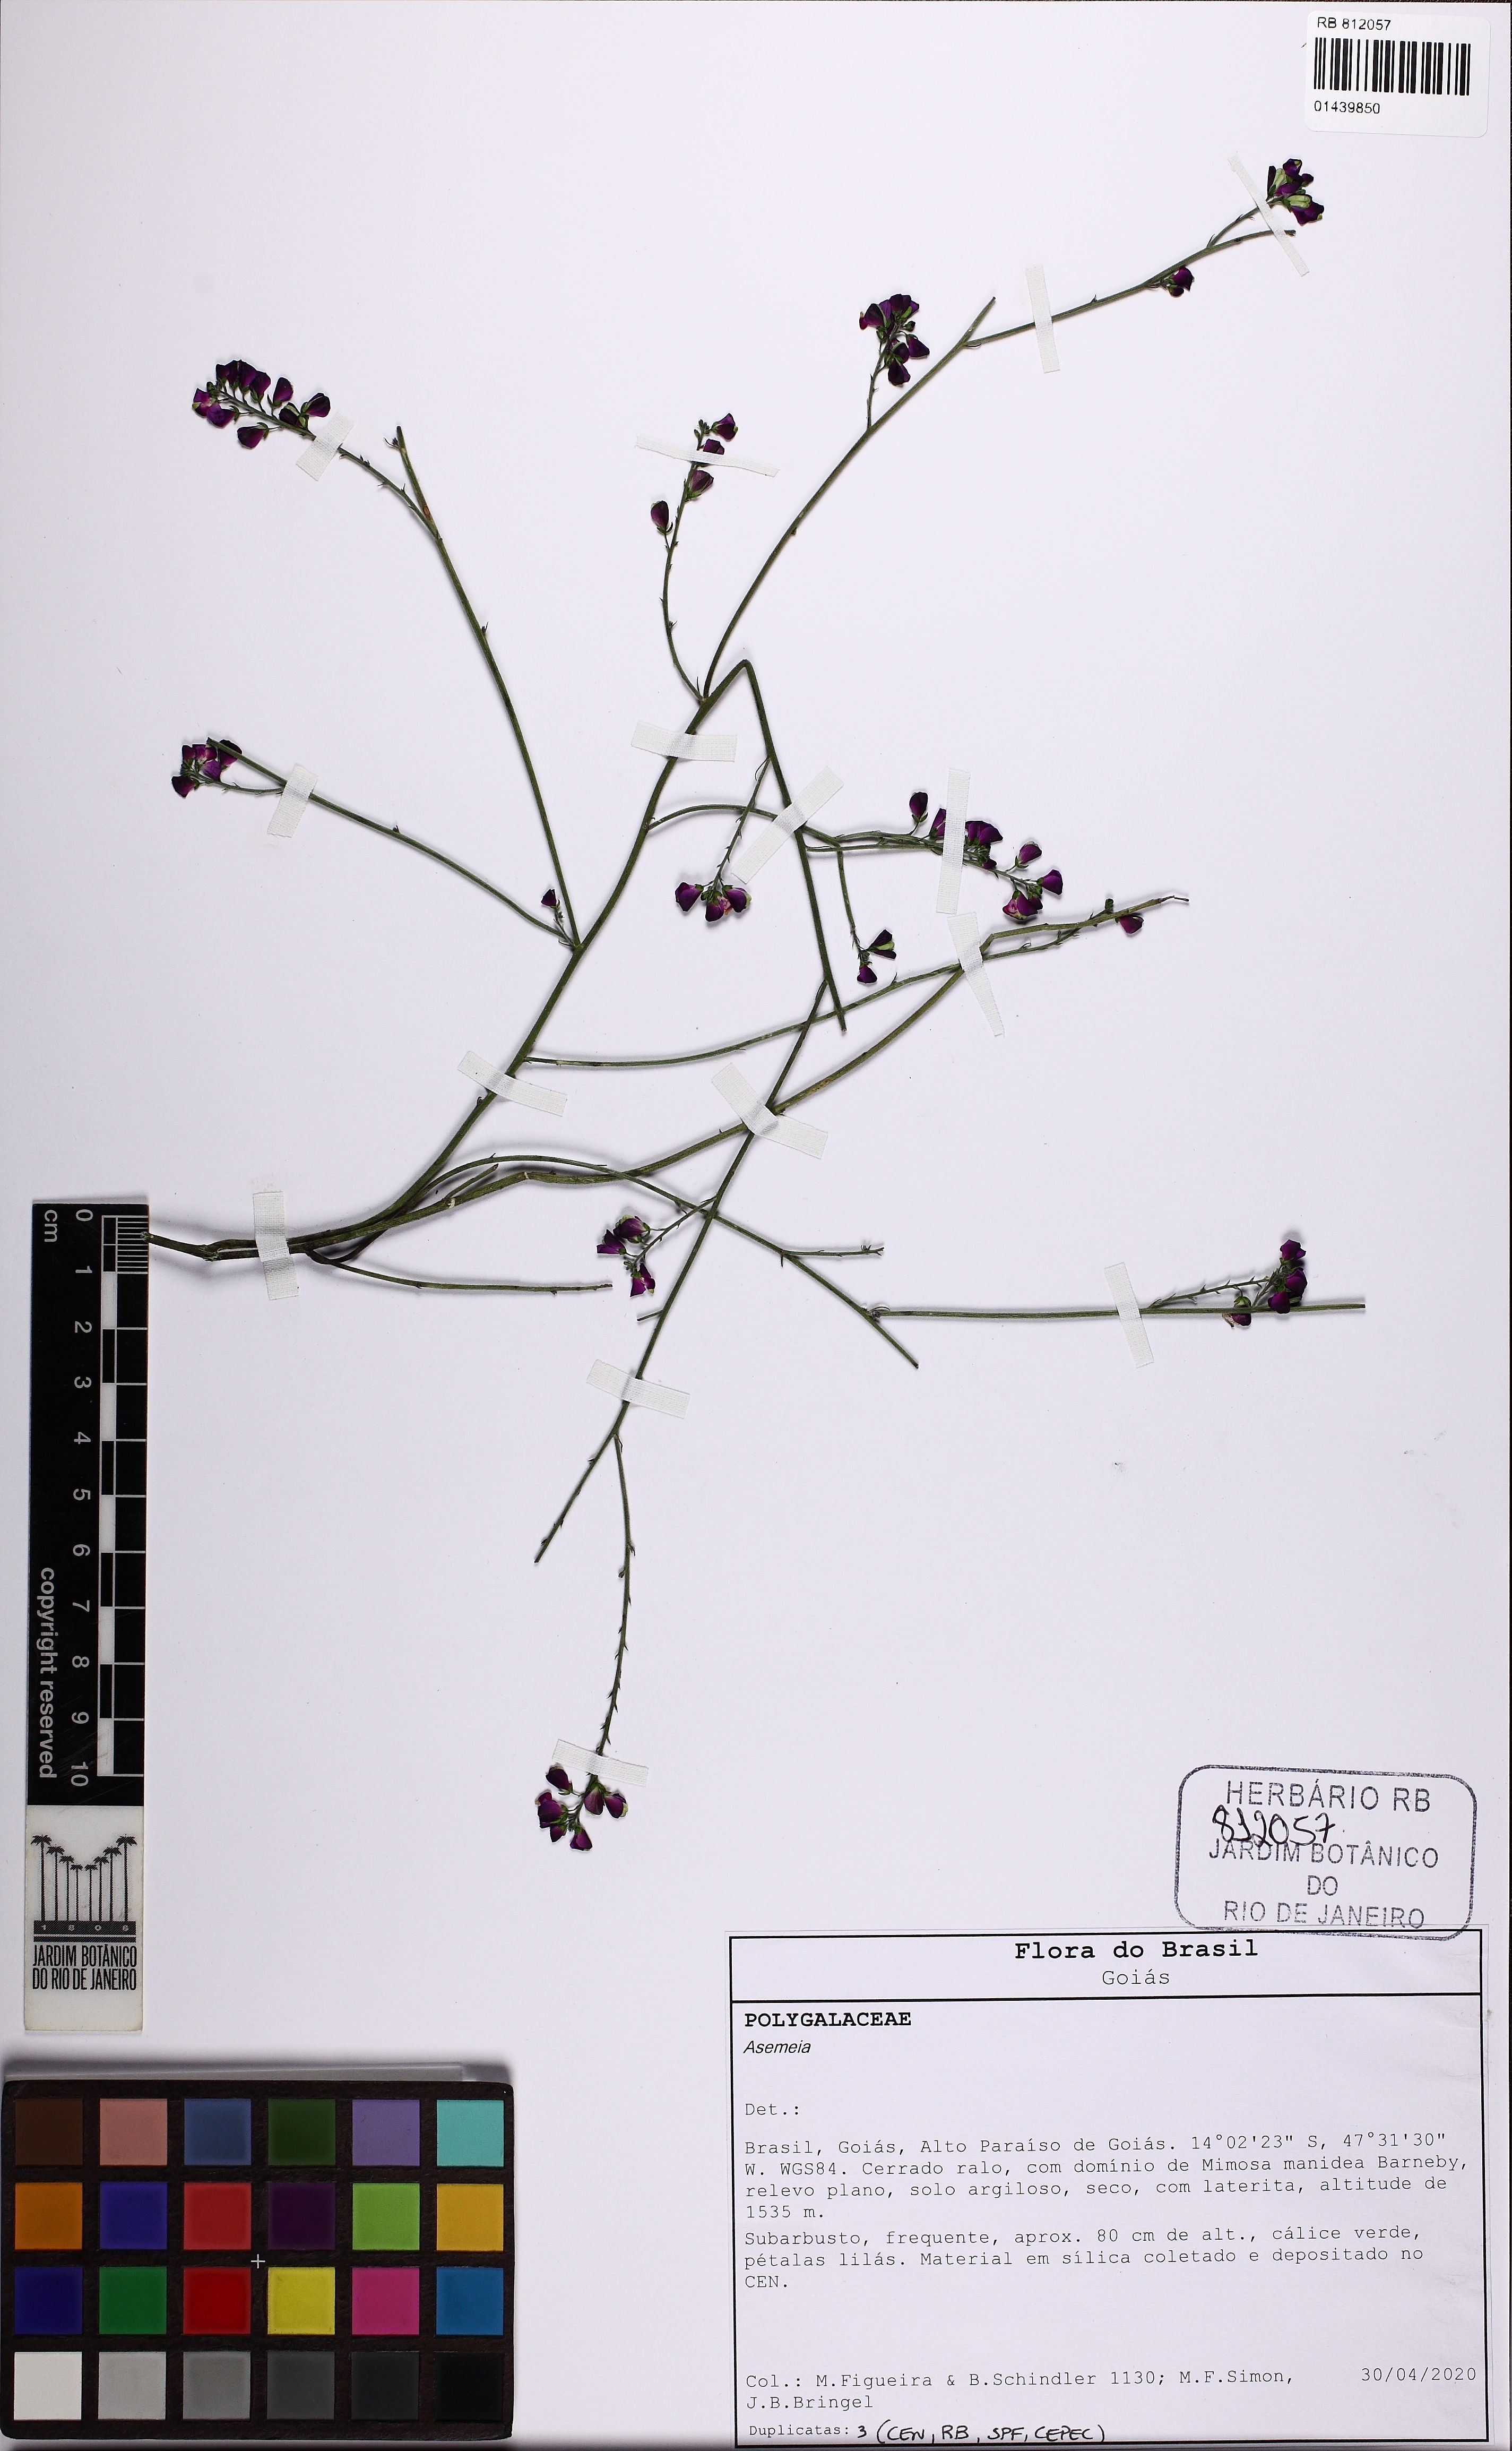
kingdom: Plantae
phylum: Tracheophyta
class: Magnoliopsida
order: Fabales
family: Polygalaceae
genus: Asemeia
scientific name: Asemeia
